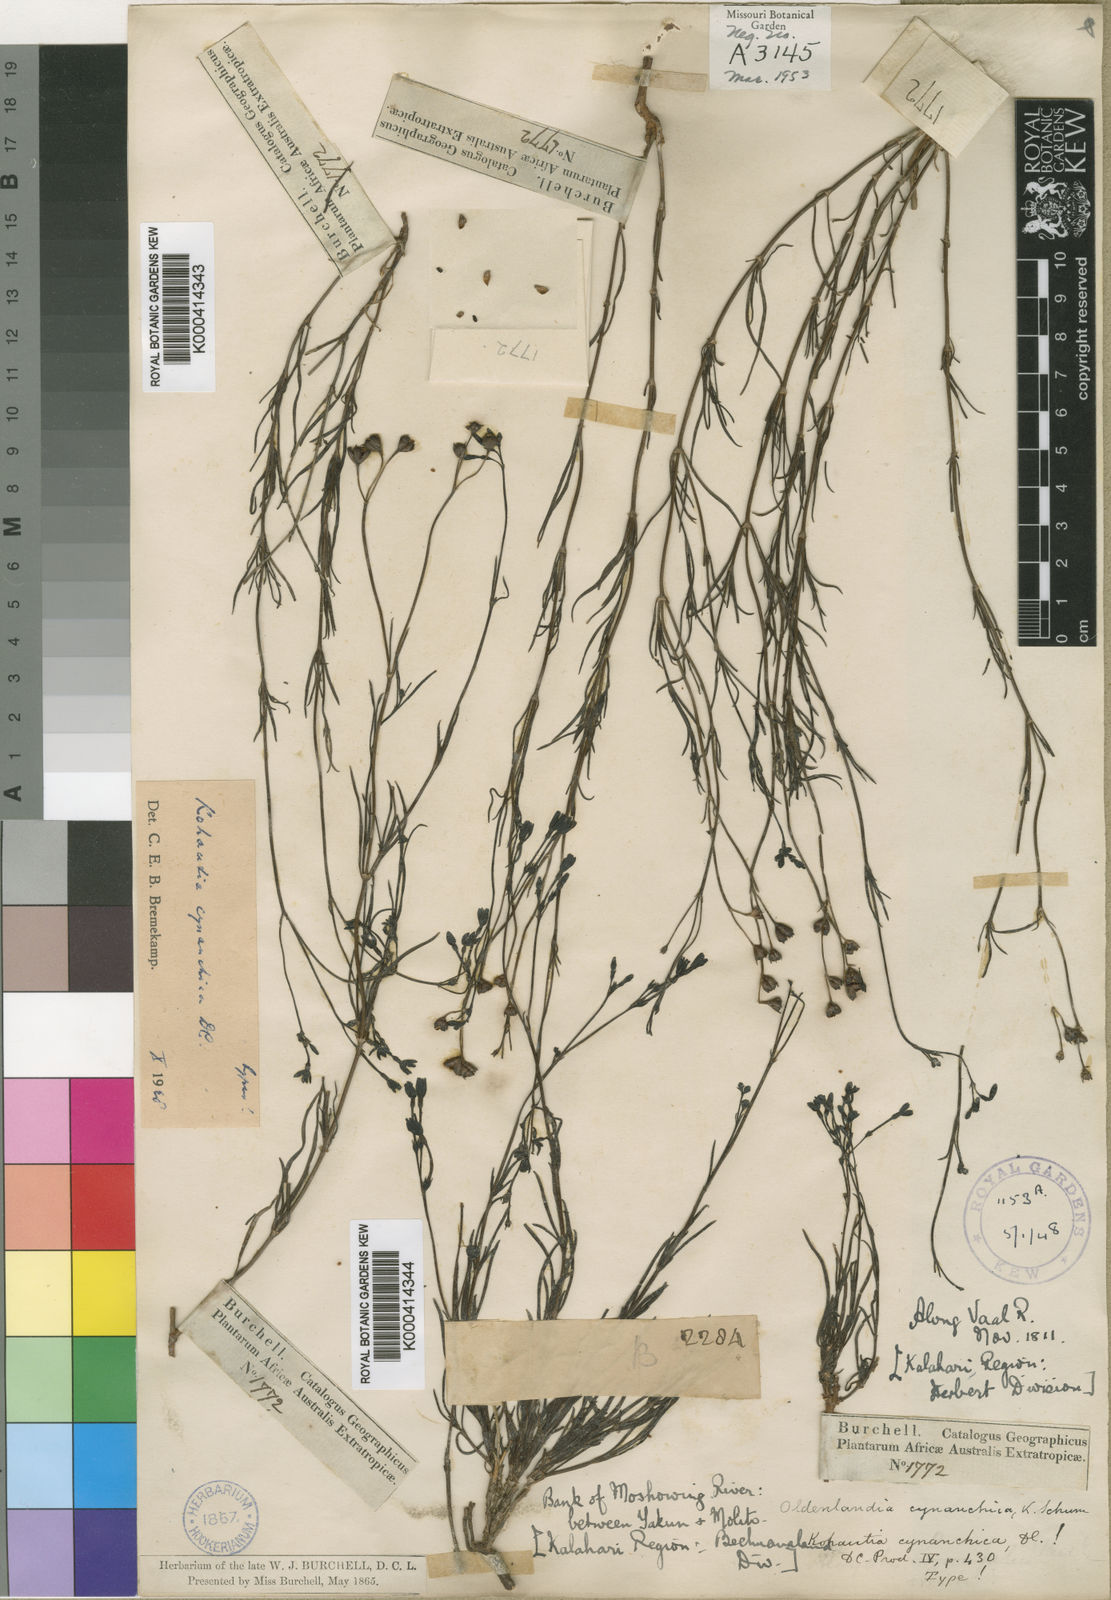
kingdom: Plantae
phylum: Tracheophyta
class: Magnoliopsida
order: Gentianales
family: Rubiaceae
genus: Kohautia
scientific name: Kohautia cynanchica
